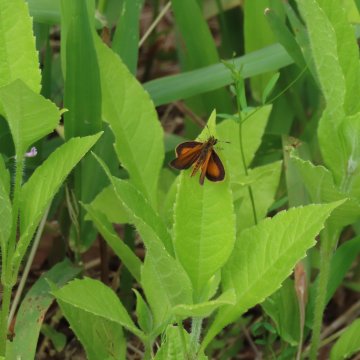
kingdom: Animalia
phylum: Arthropoda
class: Insecta
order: Lepidoptera
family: Hesperiidae
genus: Ancyloxypha
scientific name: Ancyloxypha numitor
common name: Least Skipper
